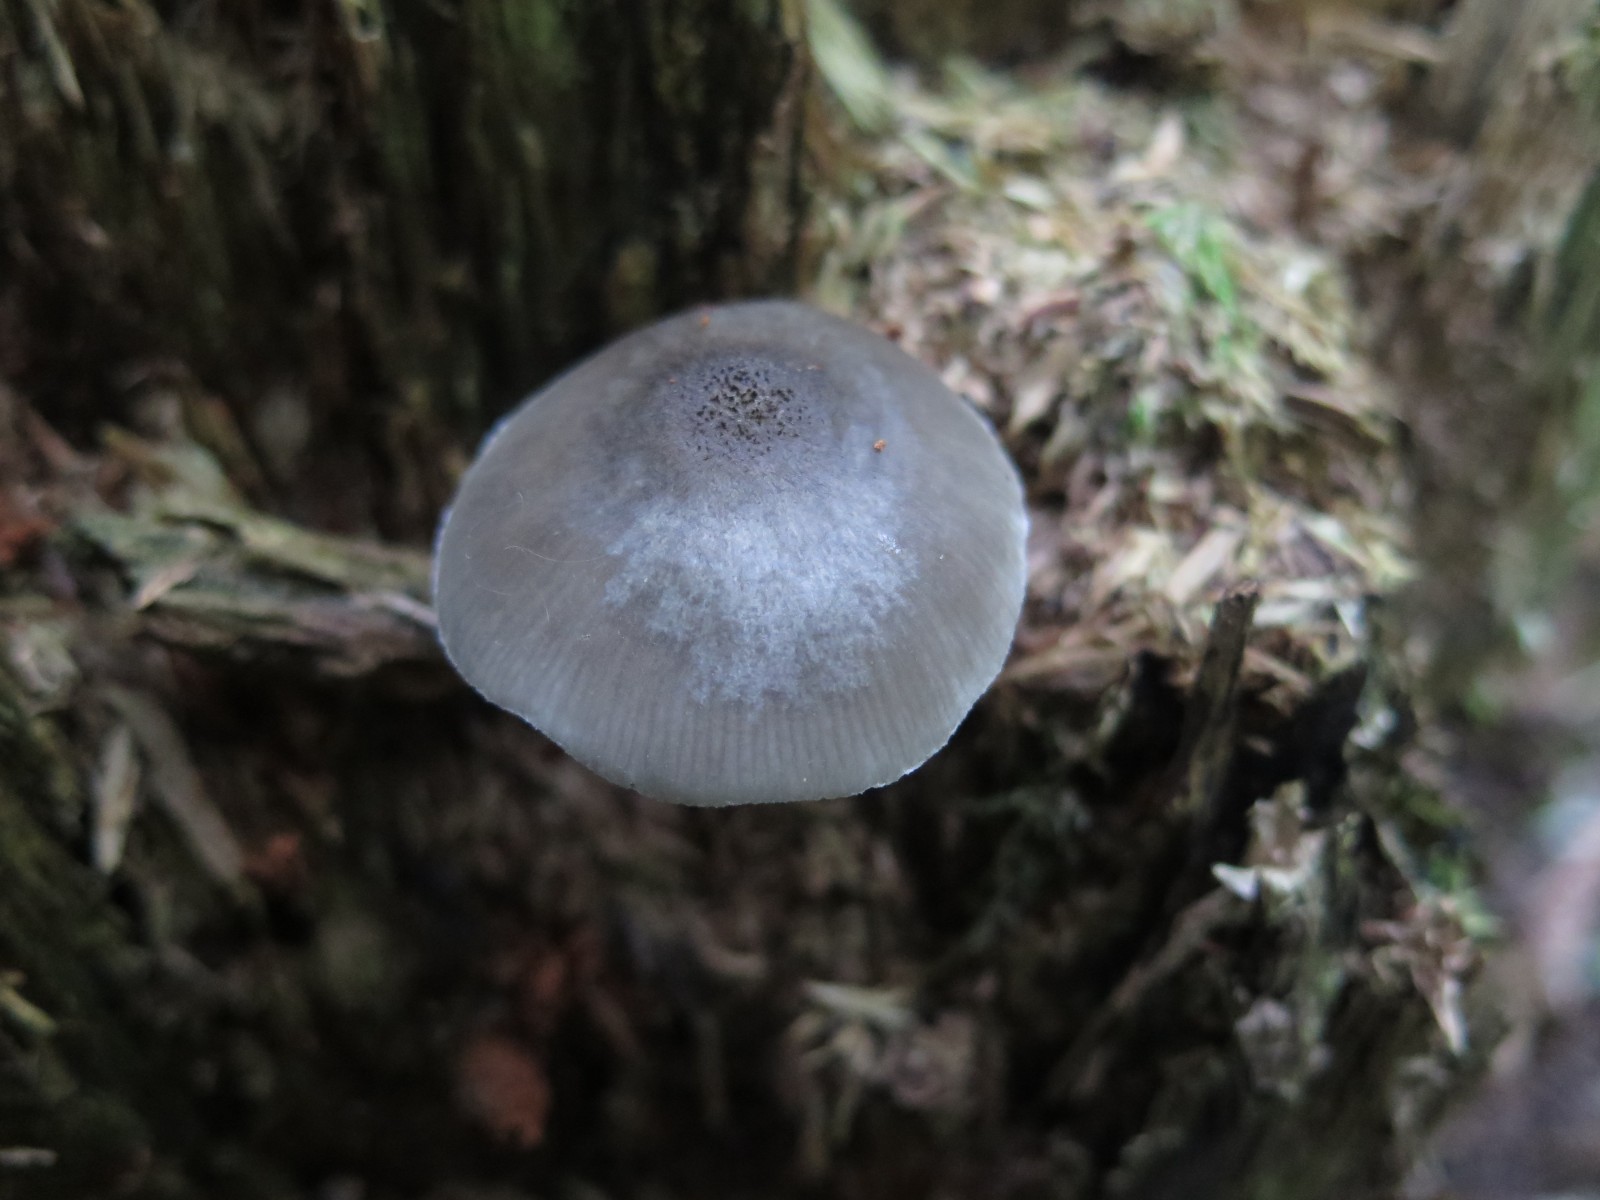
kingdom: Fungi
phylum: Basidiomycota
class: Agaricomycetes
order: Agaricales
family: Pluteaceae
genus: Pluteus
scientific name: Pluteus salicinus
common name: stiv skærmhat
